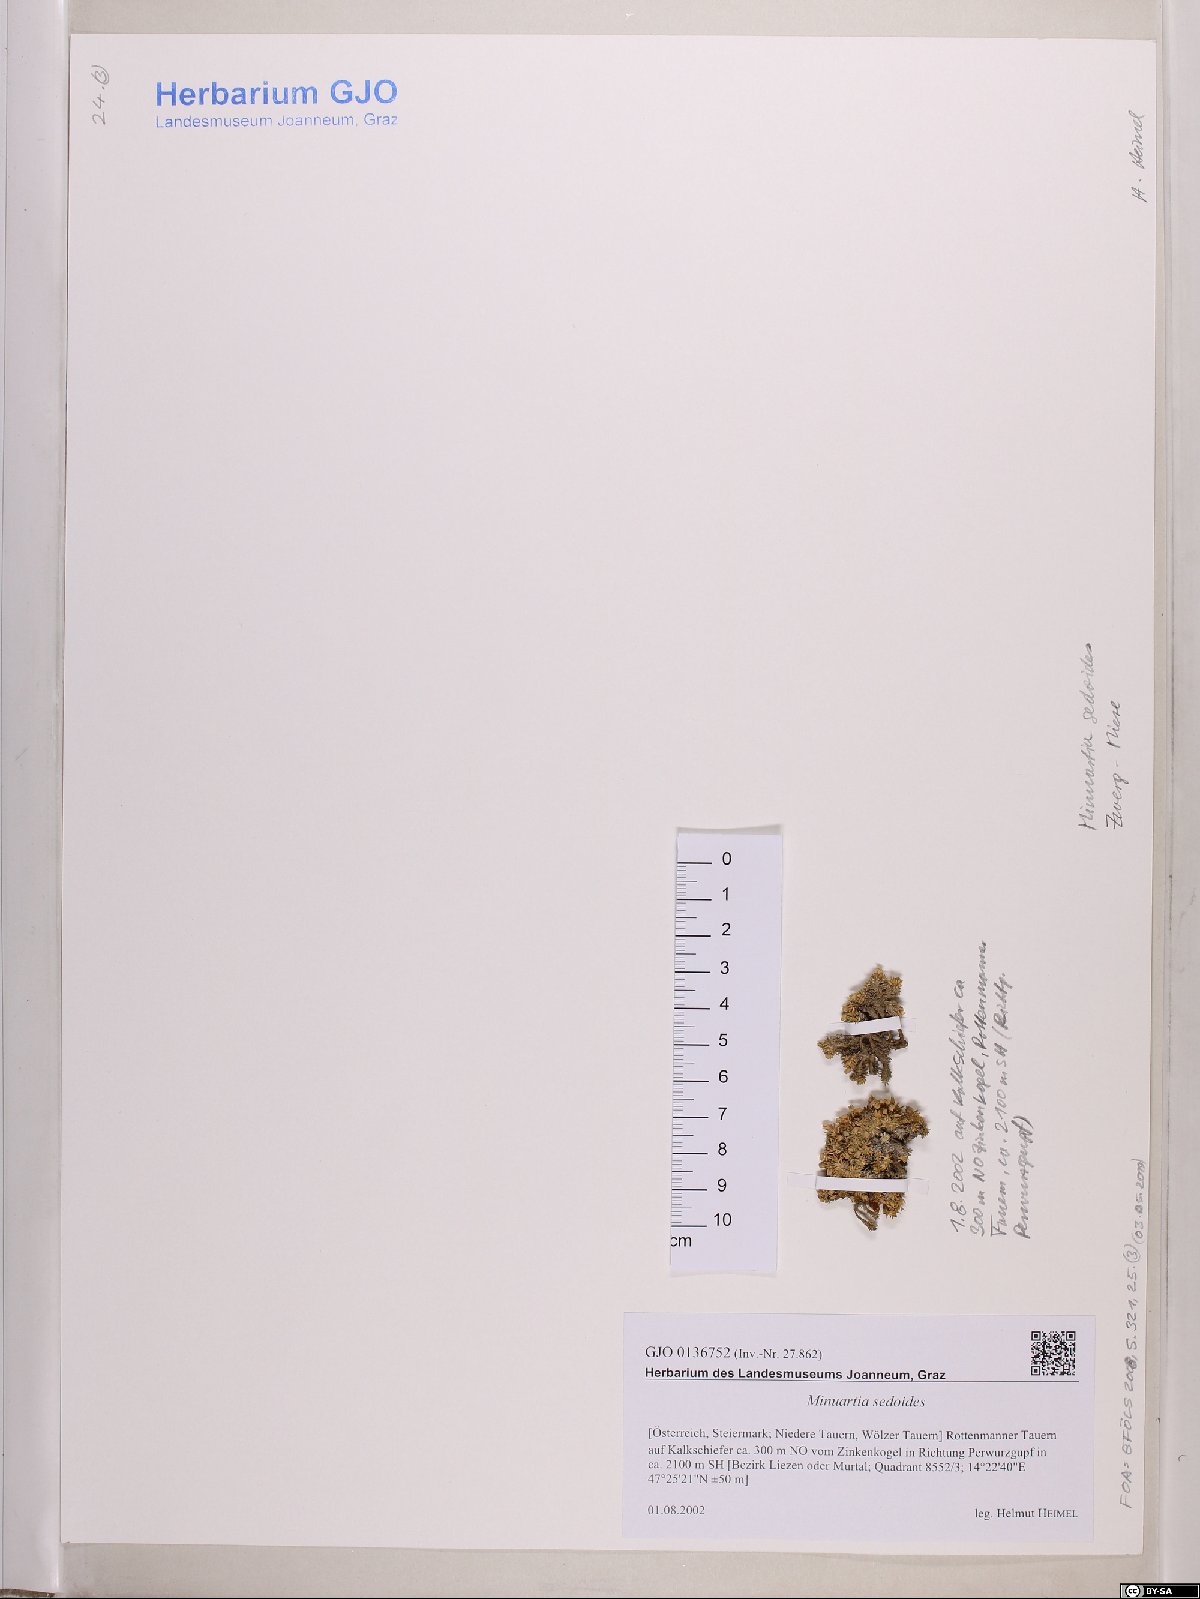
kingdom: Plantae
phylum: Tracheophyta
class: Magnoliopsida
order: Caryophyllales
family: Caryophyllaceae
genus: Cherleria
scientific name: Cherleria sedoides
